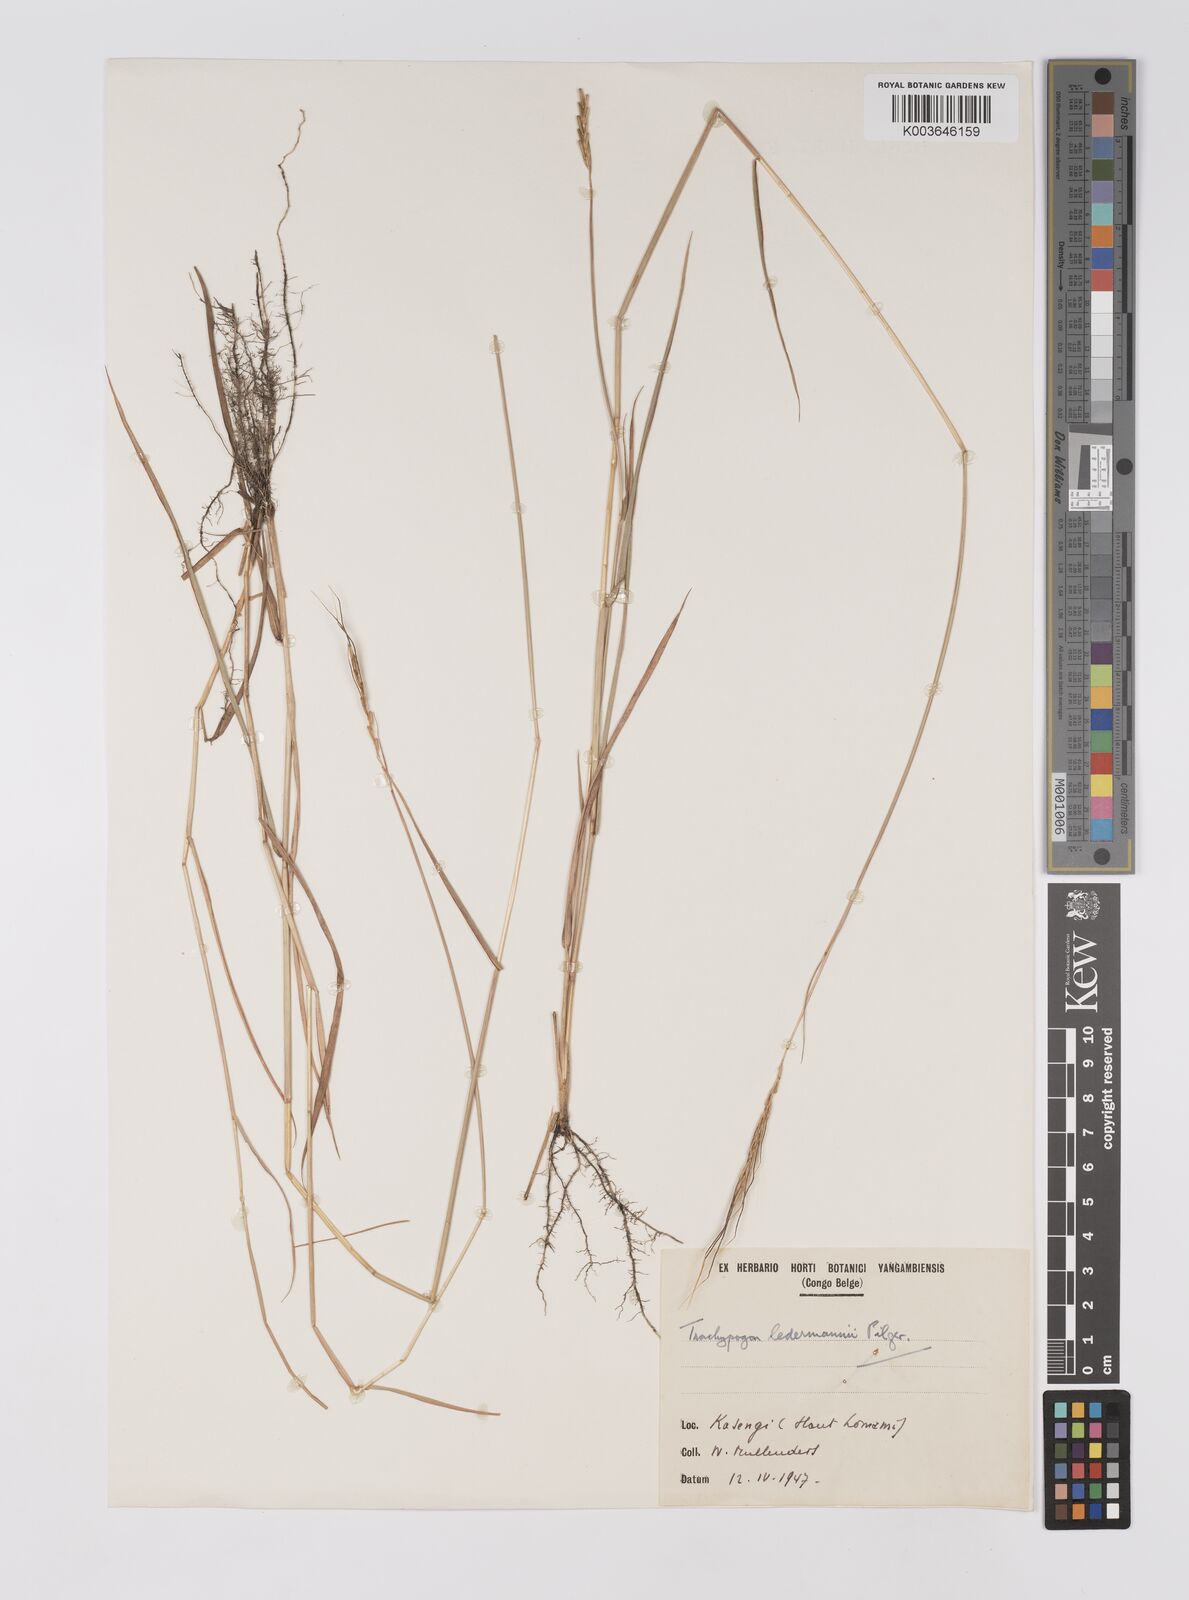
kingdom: Plantae
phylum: Tracheophyta
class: Liliopsida
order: Poales
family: Poaceae
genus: Trachypogon
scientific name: Trachypogon chevalieri
